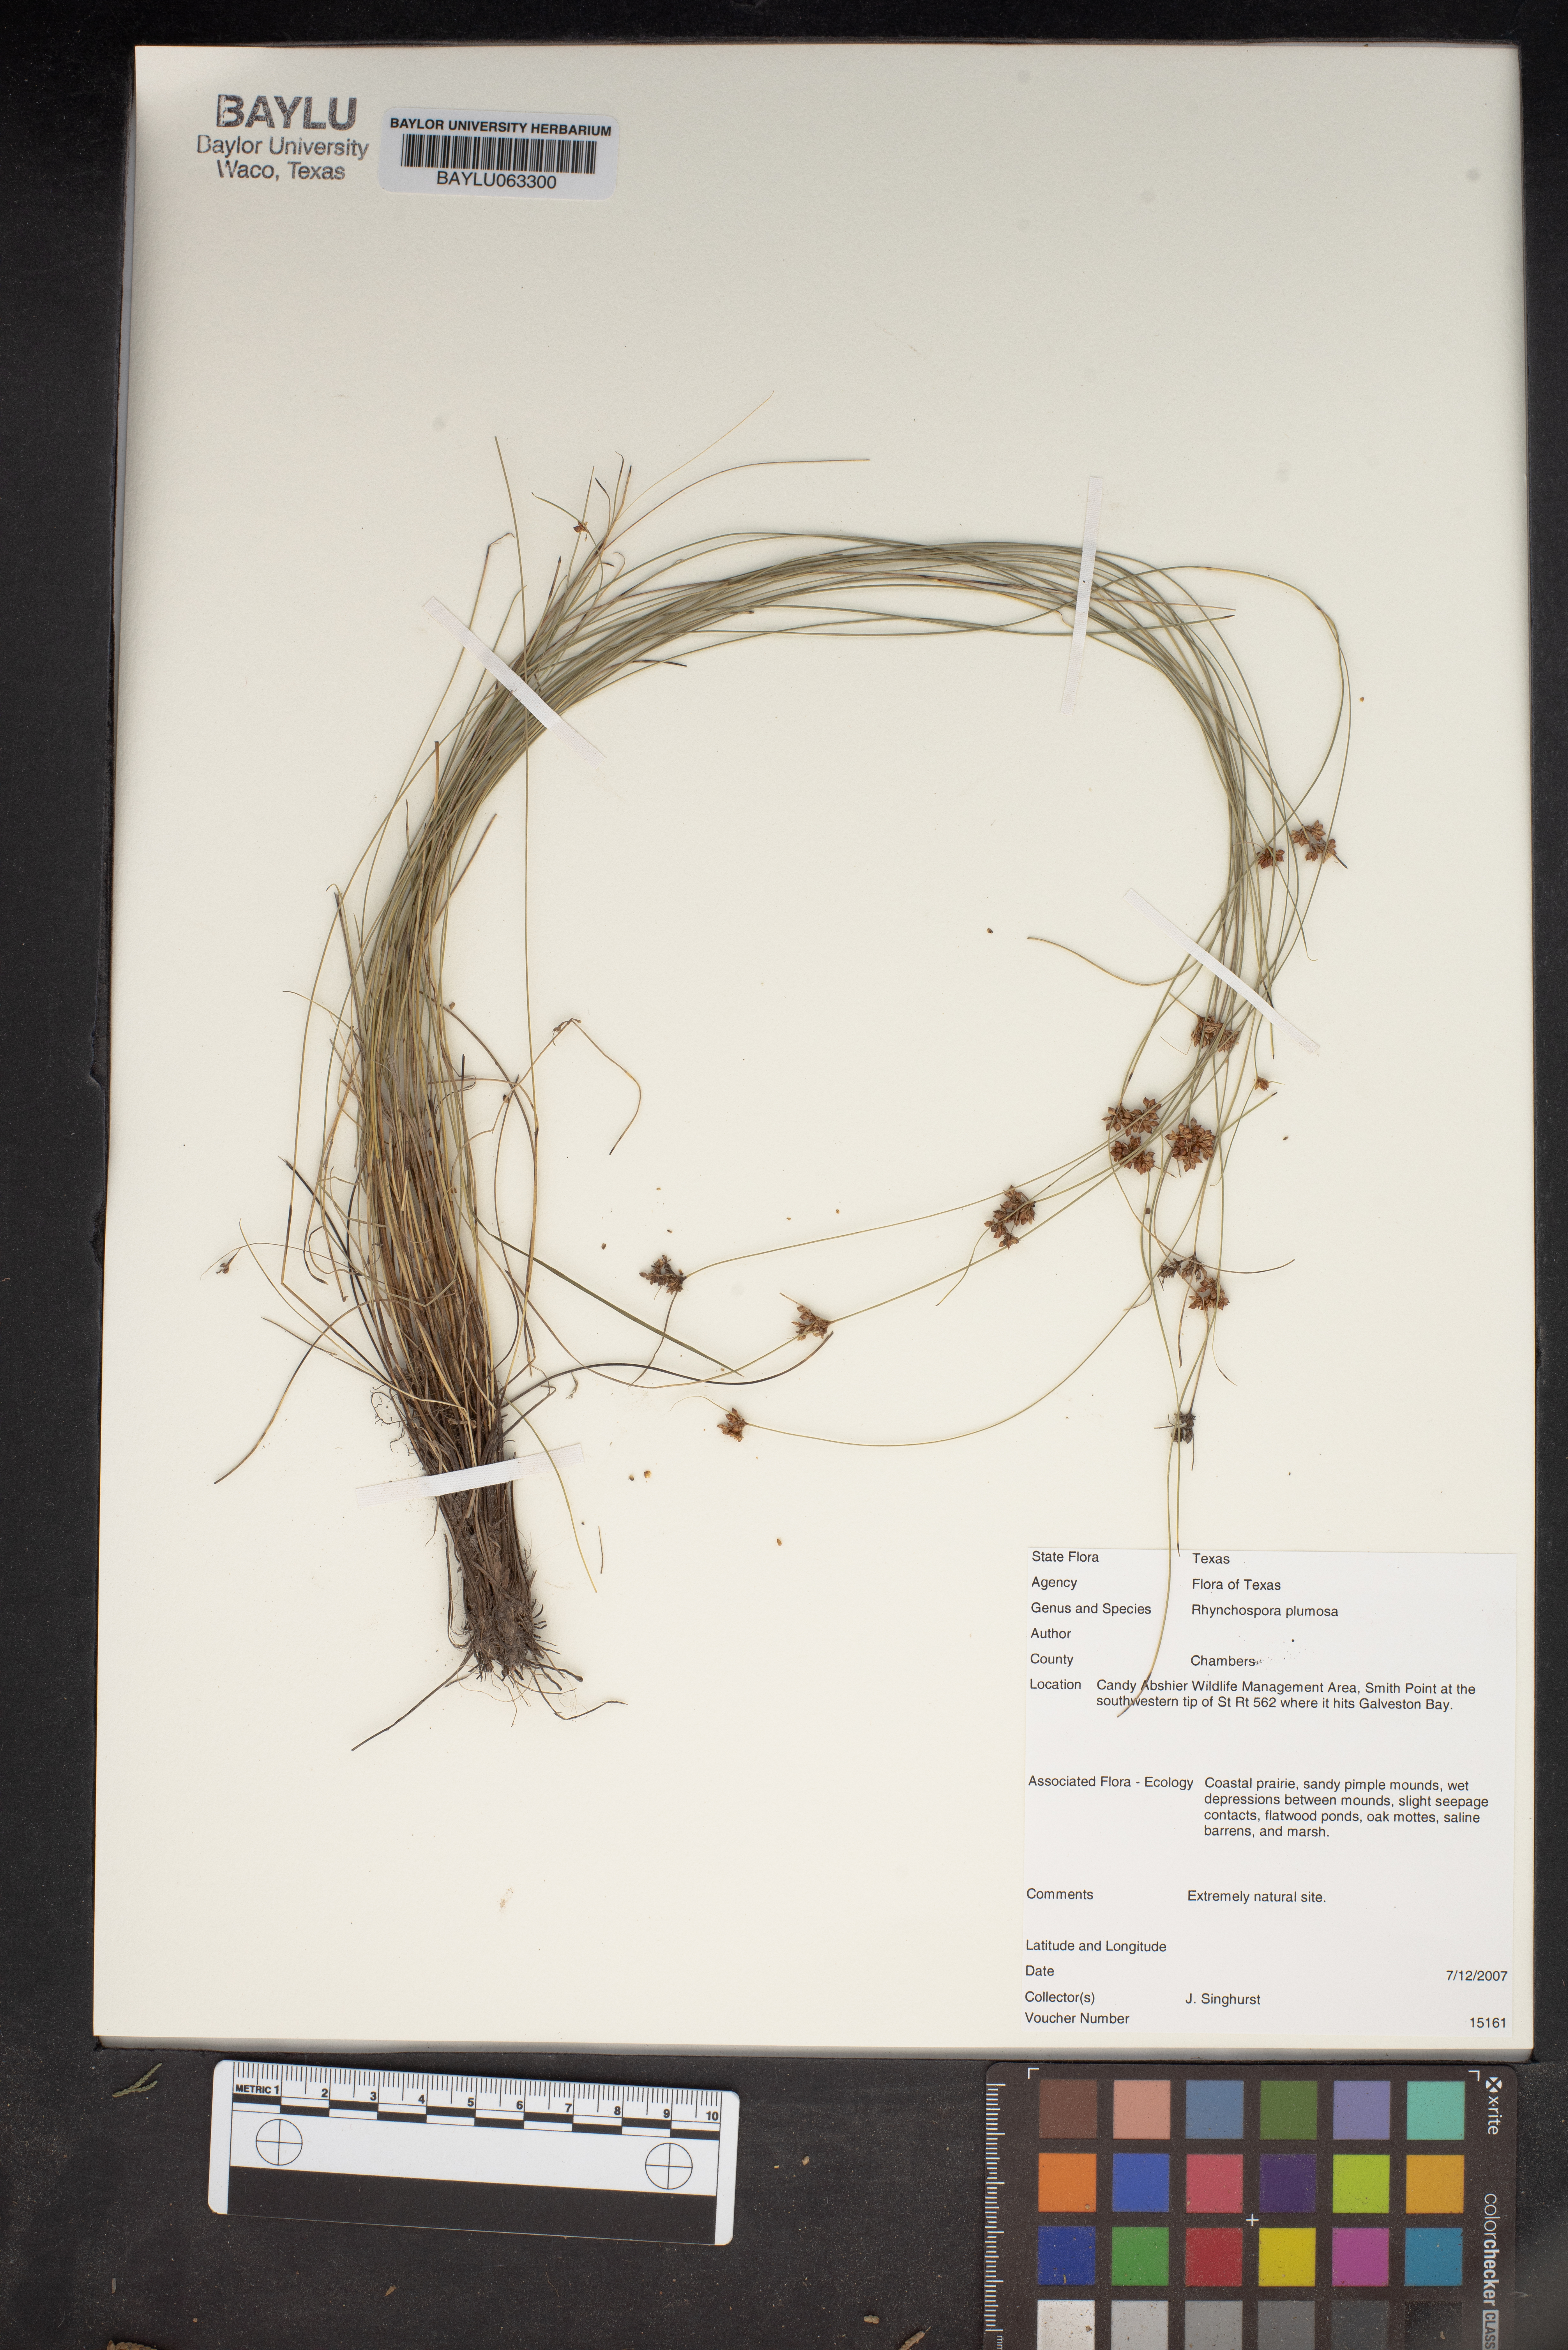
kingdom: Plantae
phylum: Tracheophyta
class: Liliopsida
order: Poales
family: Cyperaceae
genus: Rhynchospora
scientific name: Rhynchospora plumosa
